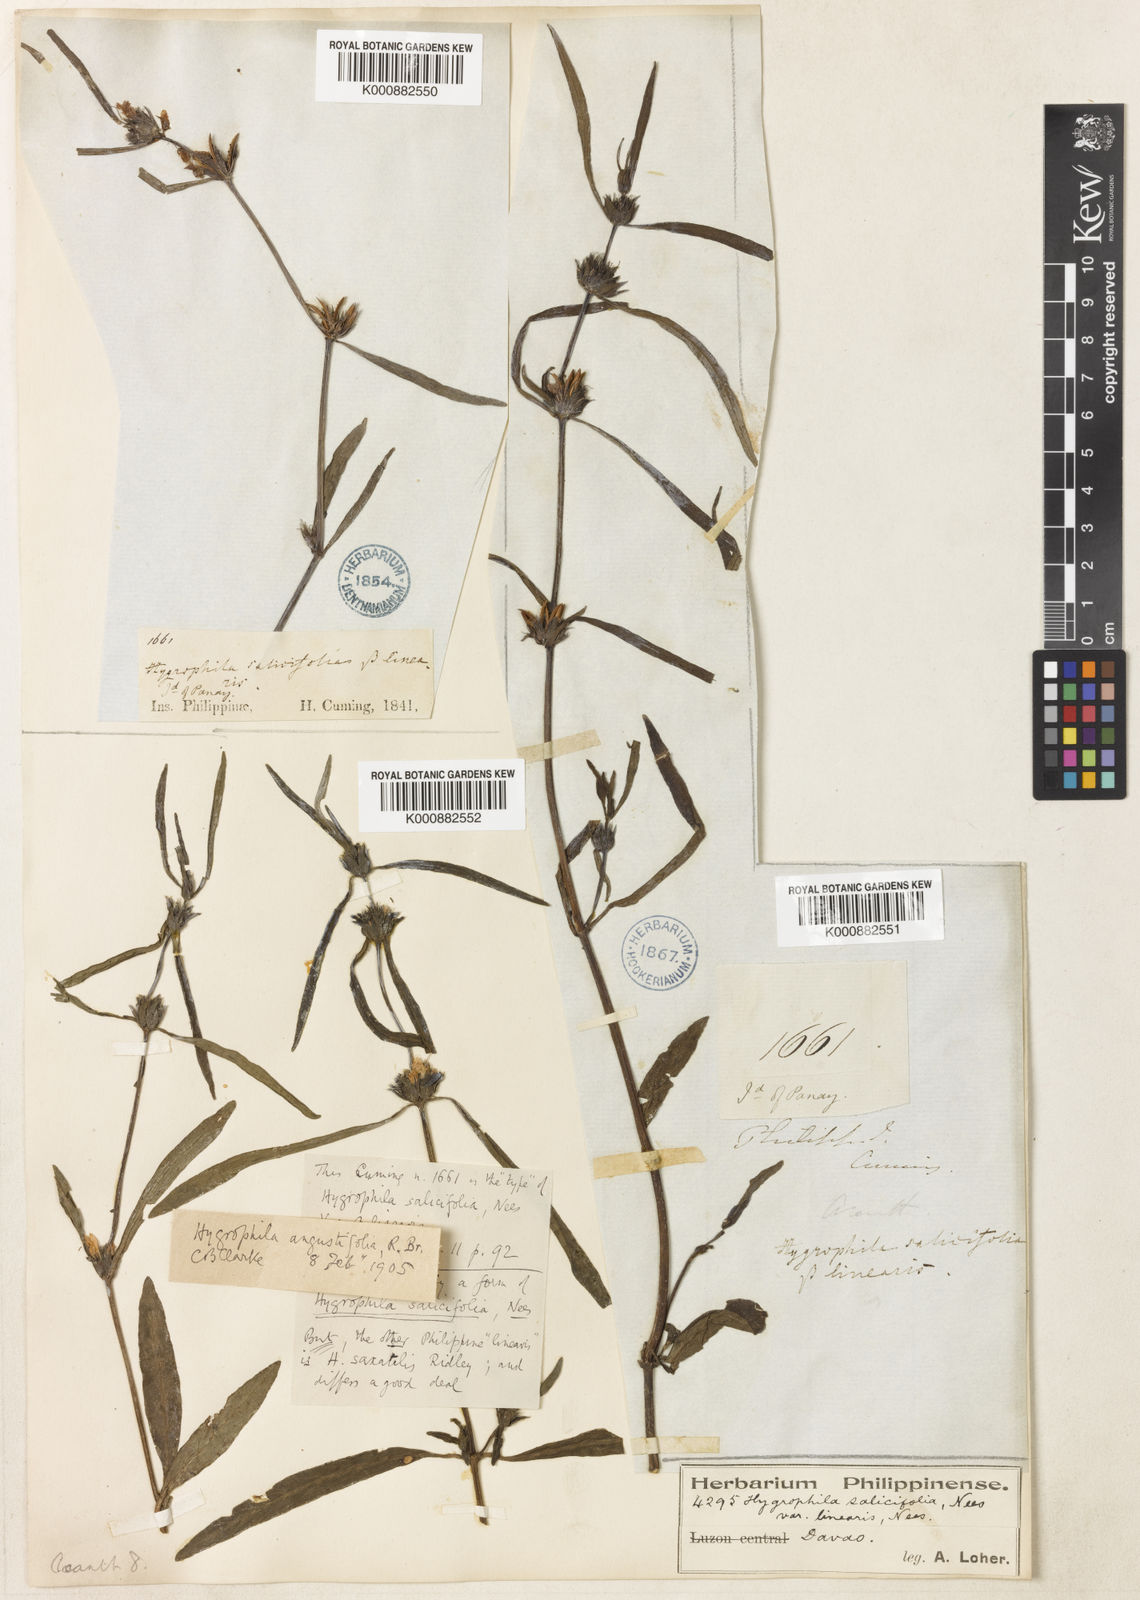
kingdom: Plantae
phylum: Tracheophyta
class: Magnoliopsida
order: Lamiales
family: Acanthaceae
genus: Hygrophila
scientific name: Hygrophila ringens
